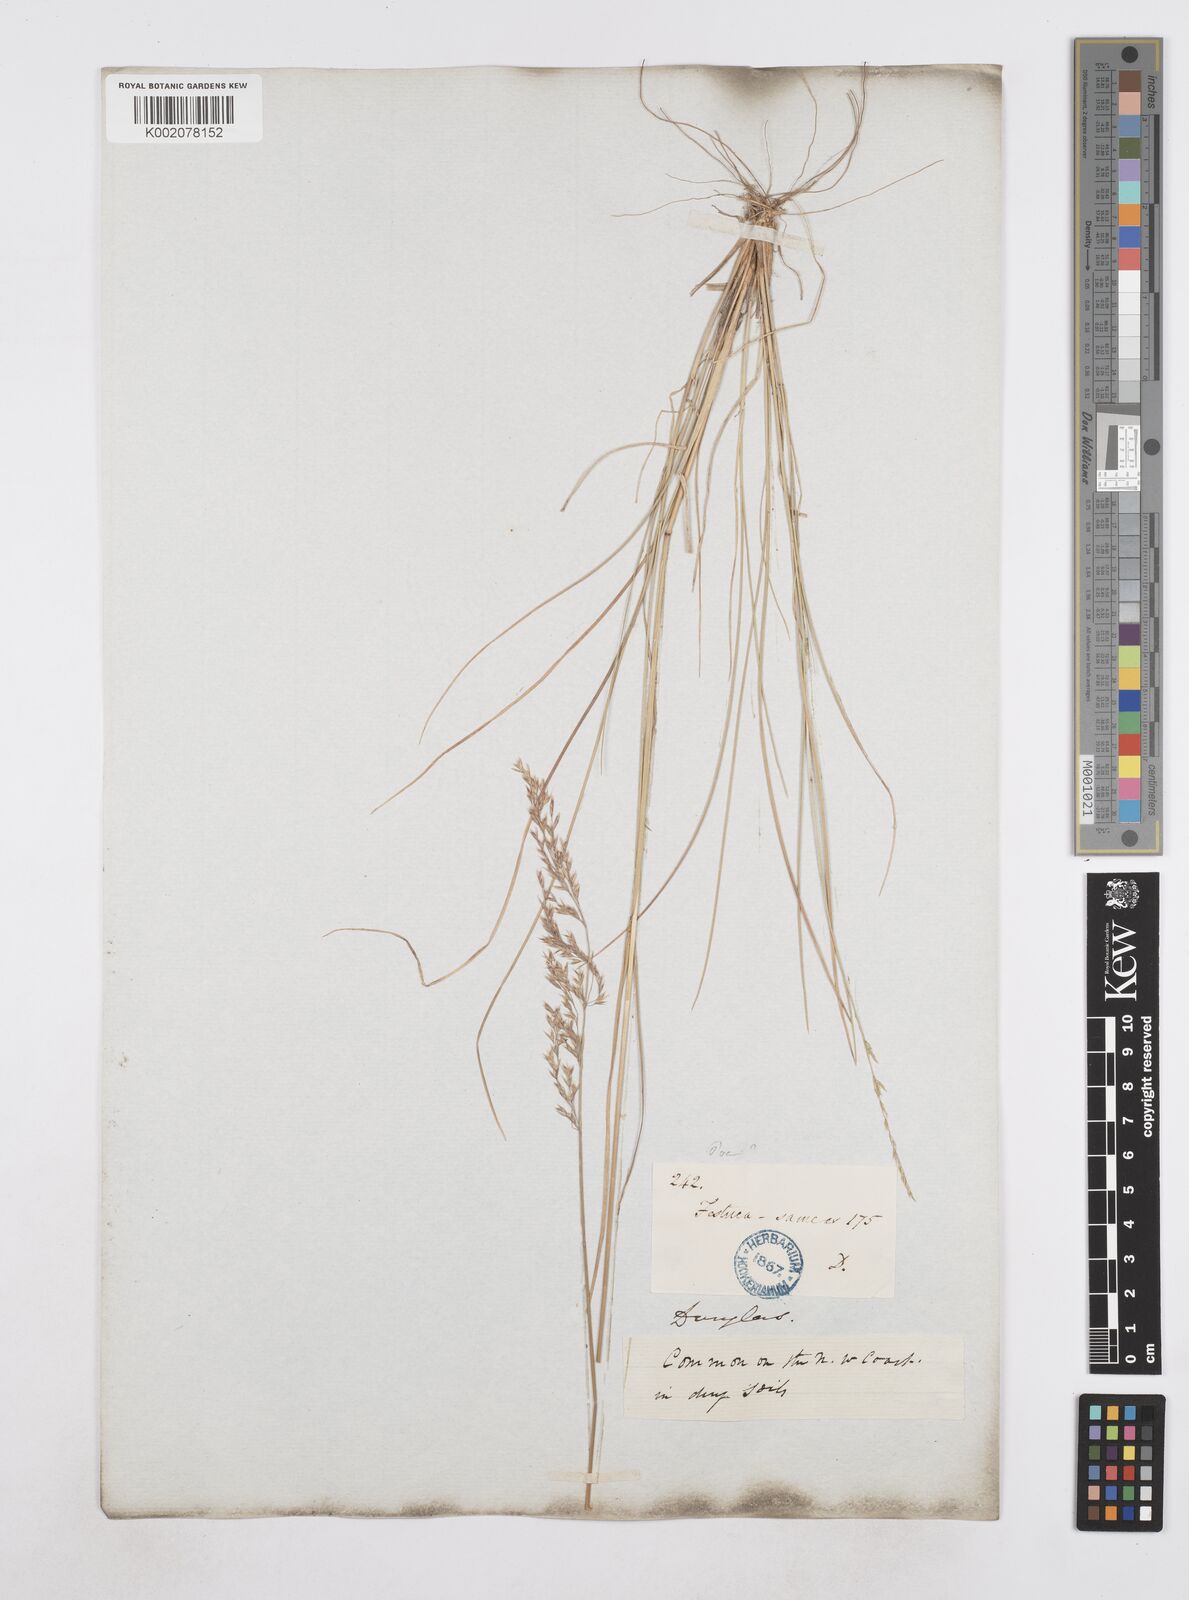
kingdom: Plantae
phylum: Tracheophyta
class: Liliopsida
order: Poales
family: Poaceae
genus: Poa
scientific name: Poa
